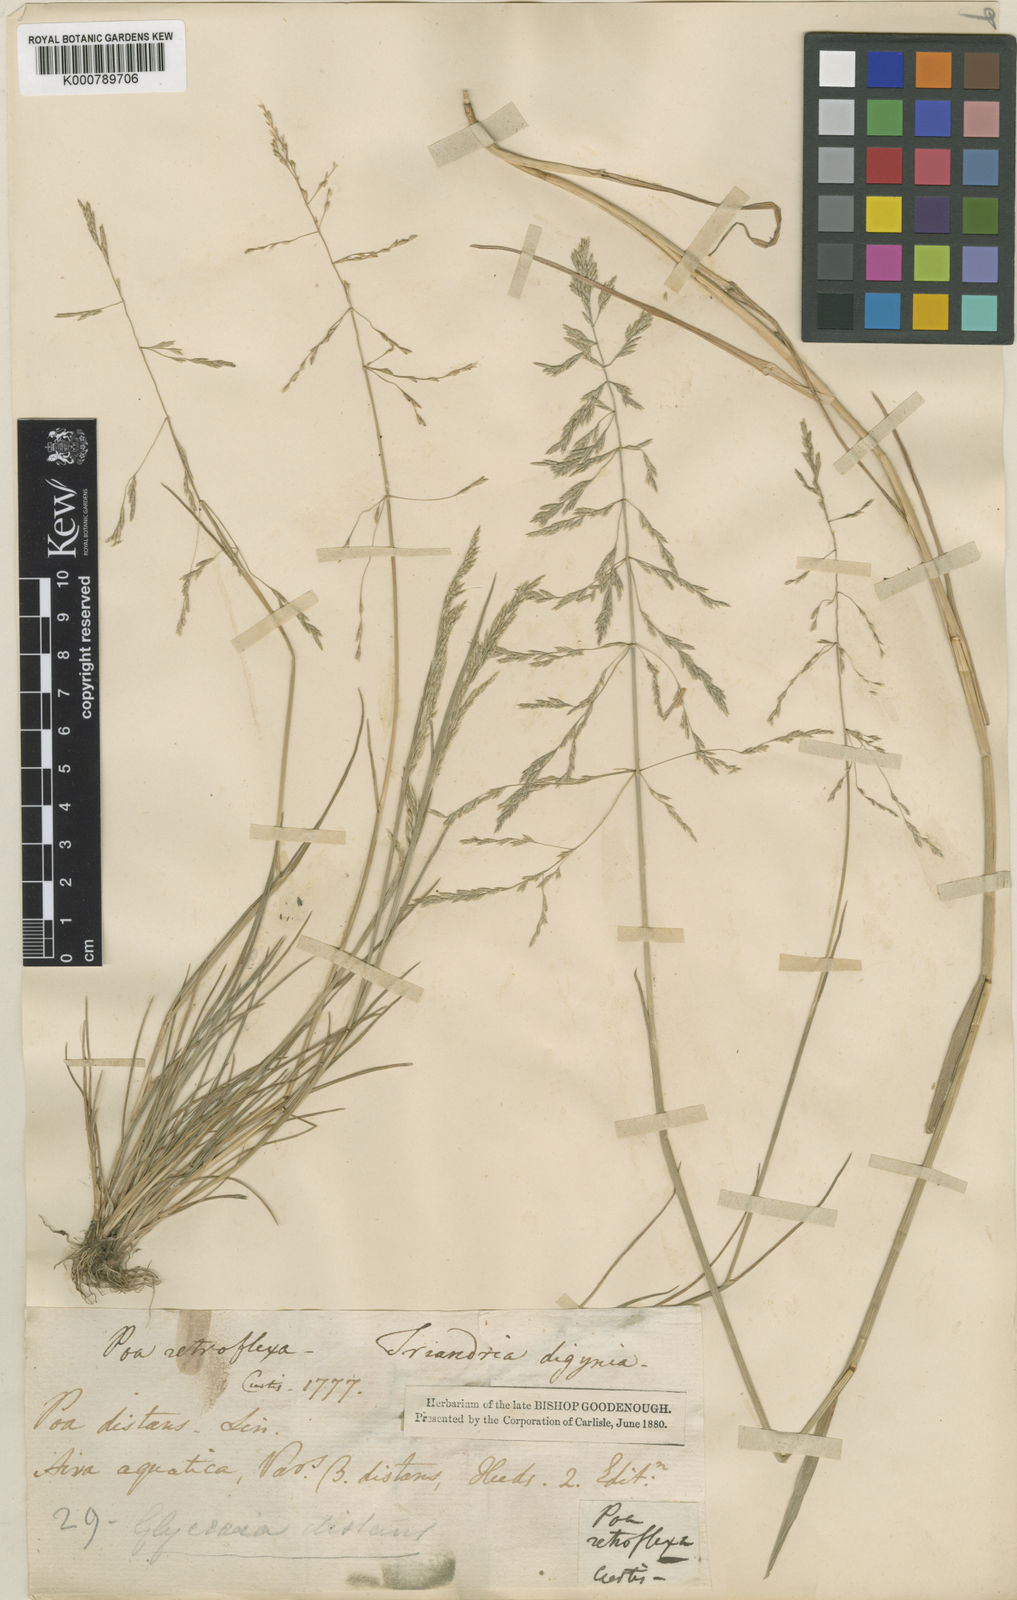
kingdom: Plantae
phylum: Tracheophyta
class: Liliopsida
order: Poales
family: Poaceae
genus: Puccinellia
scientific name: Puccinellia distans
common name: Weeping alkaligrass
